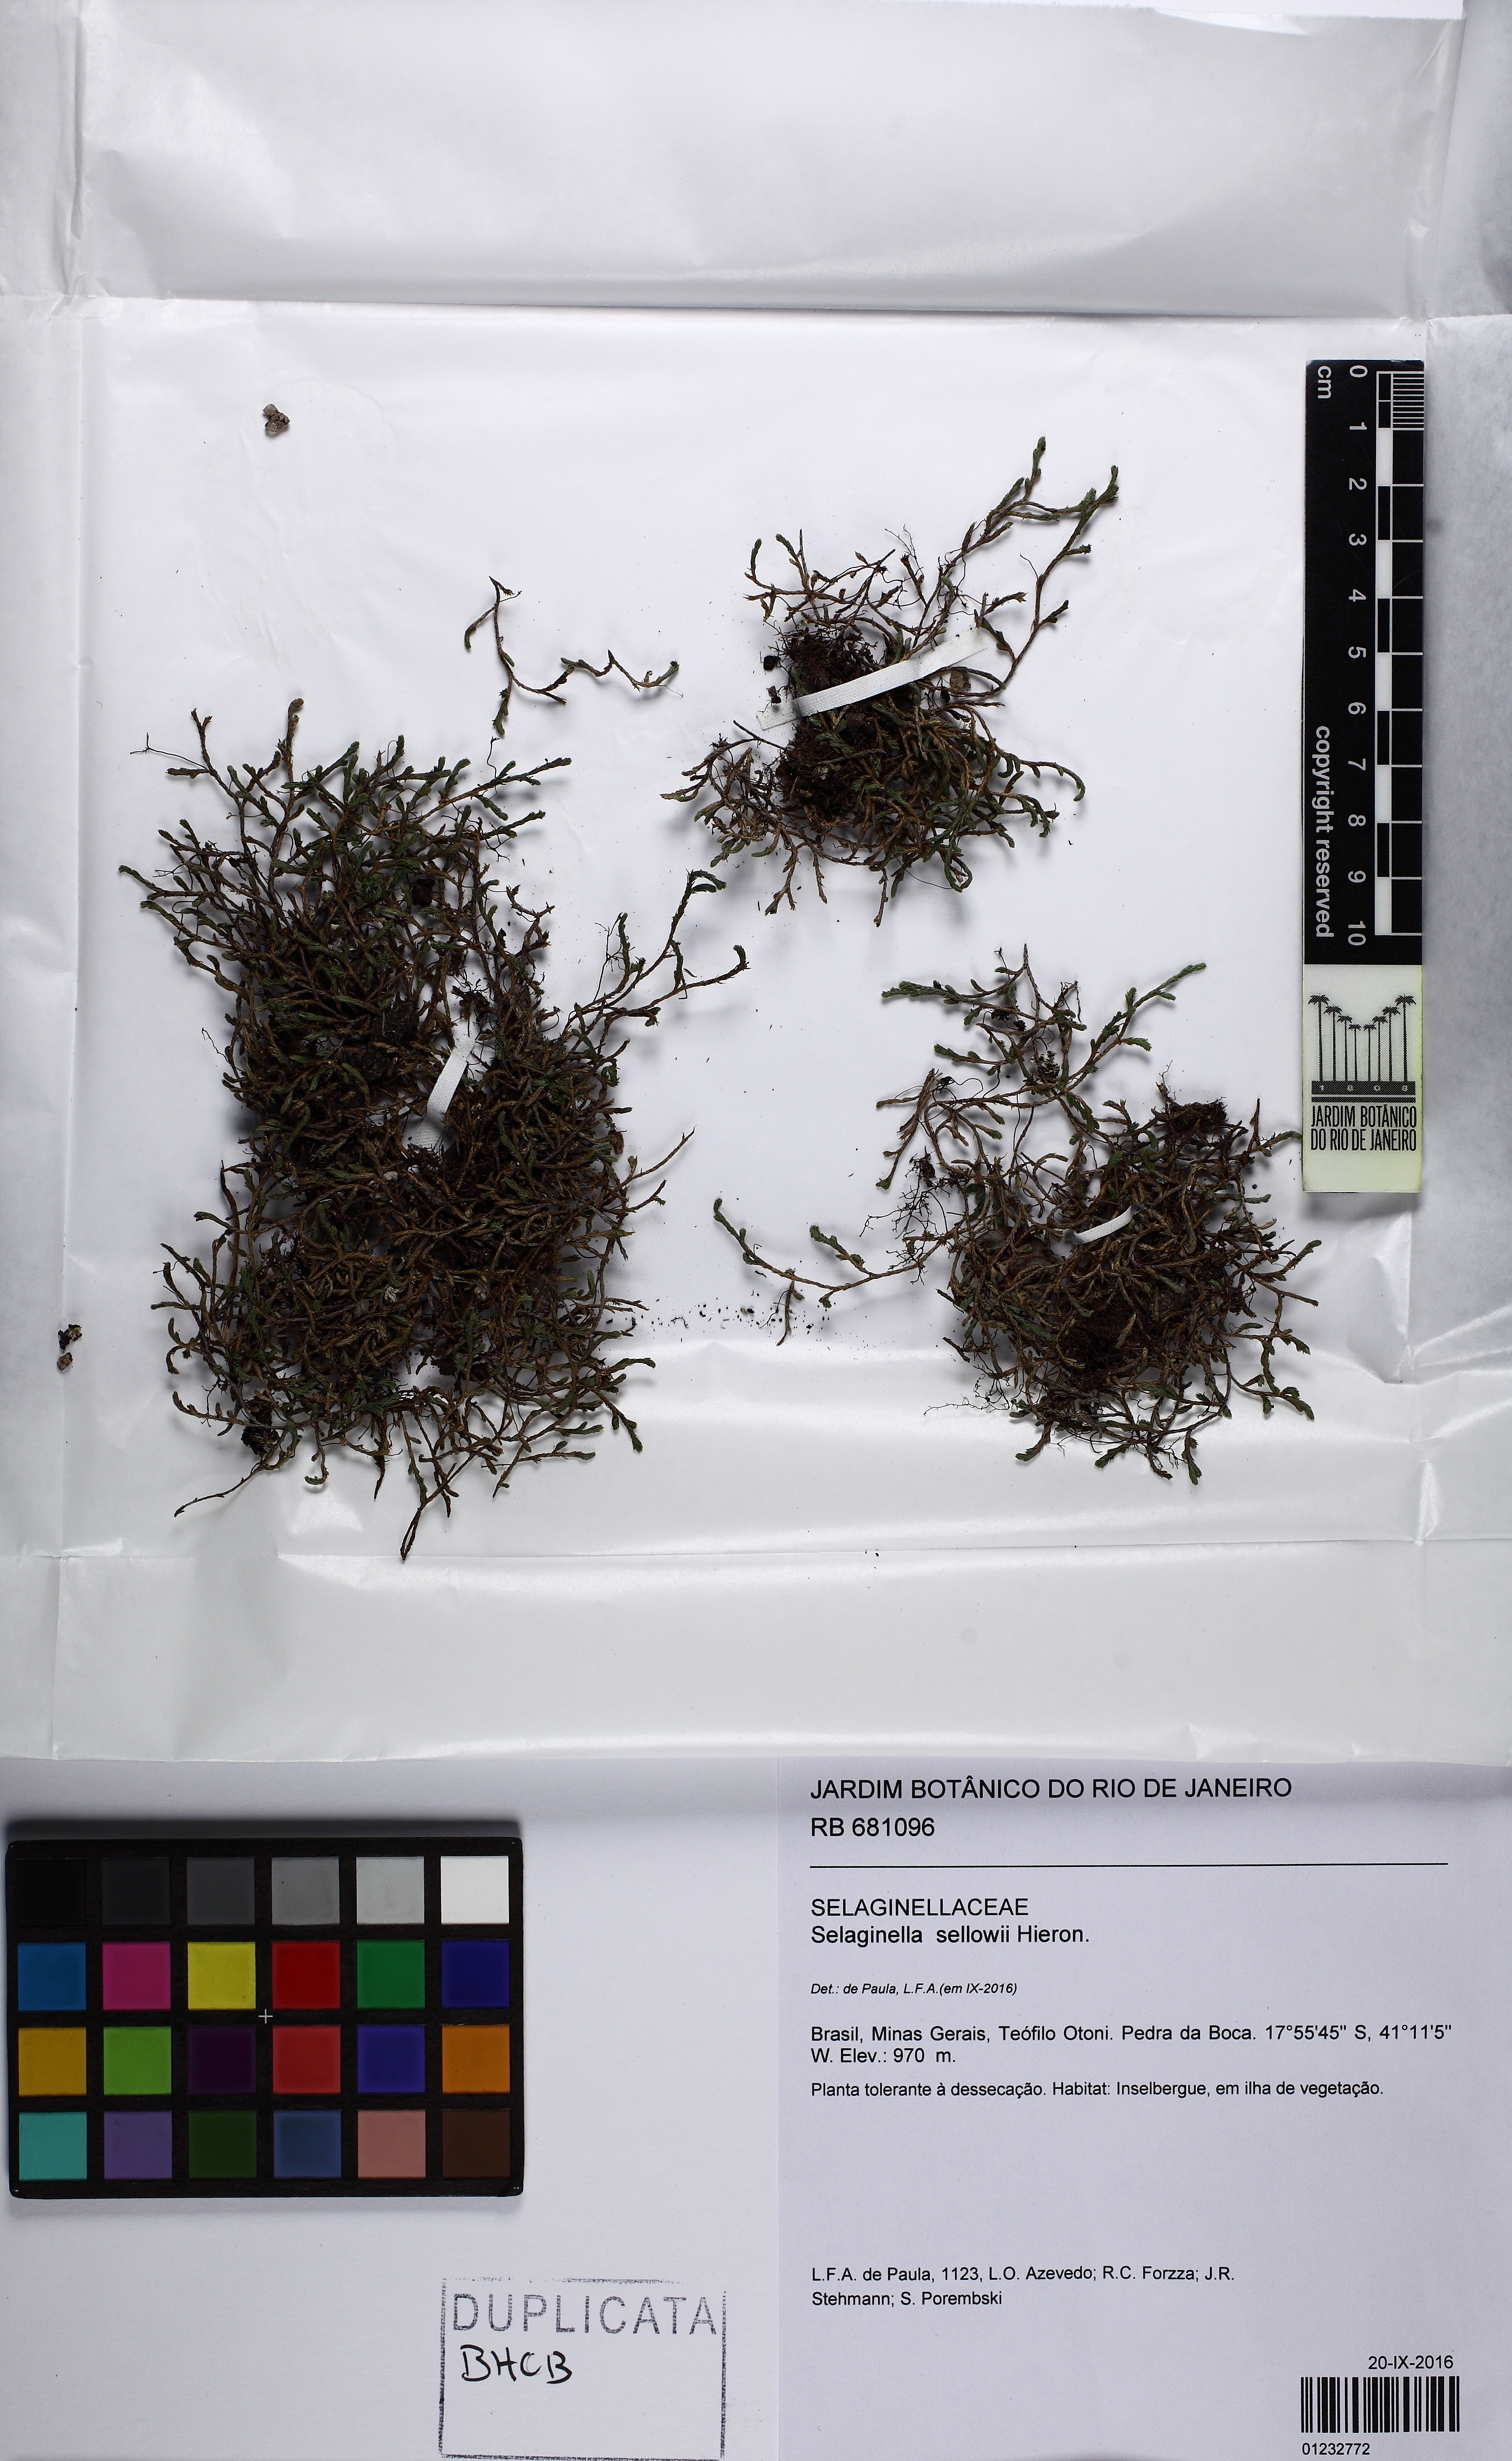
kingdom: Plantae
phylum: Tracheophyta
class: Lycopodiopsida
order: Selaginellales
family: Selaginellaceae
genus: Selaginella
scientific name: Selaginella sellowii
